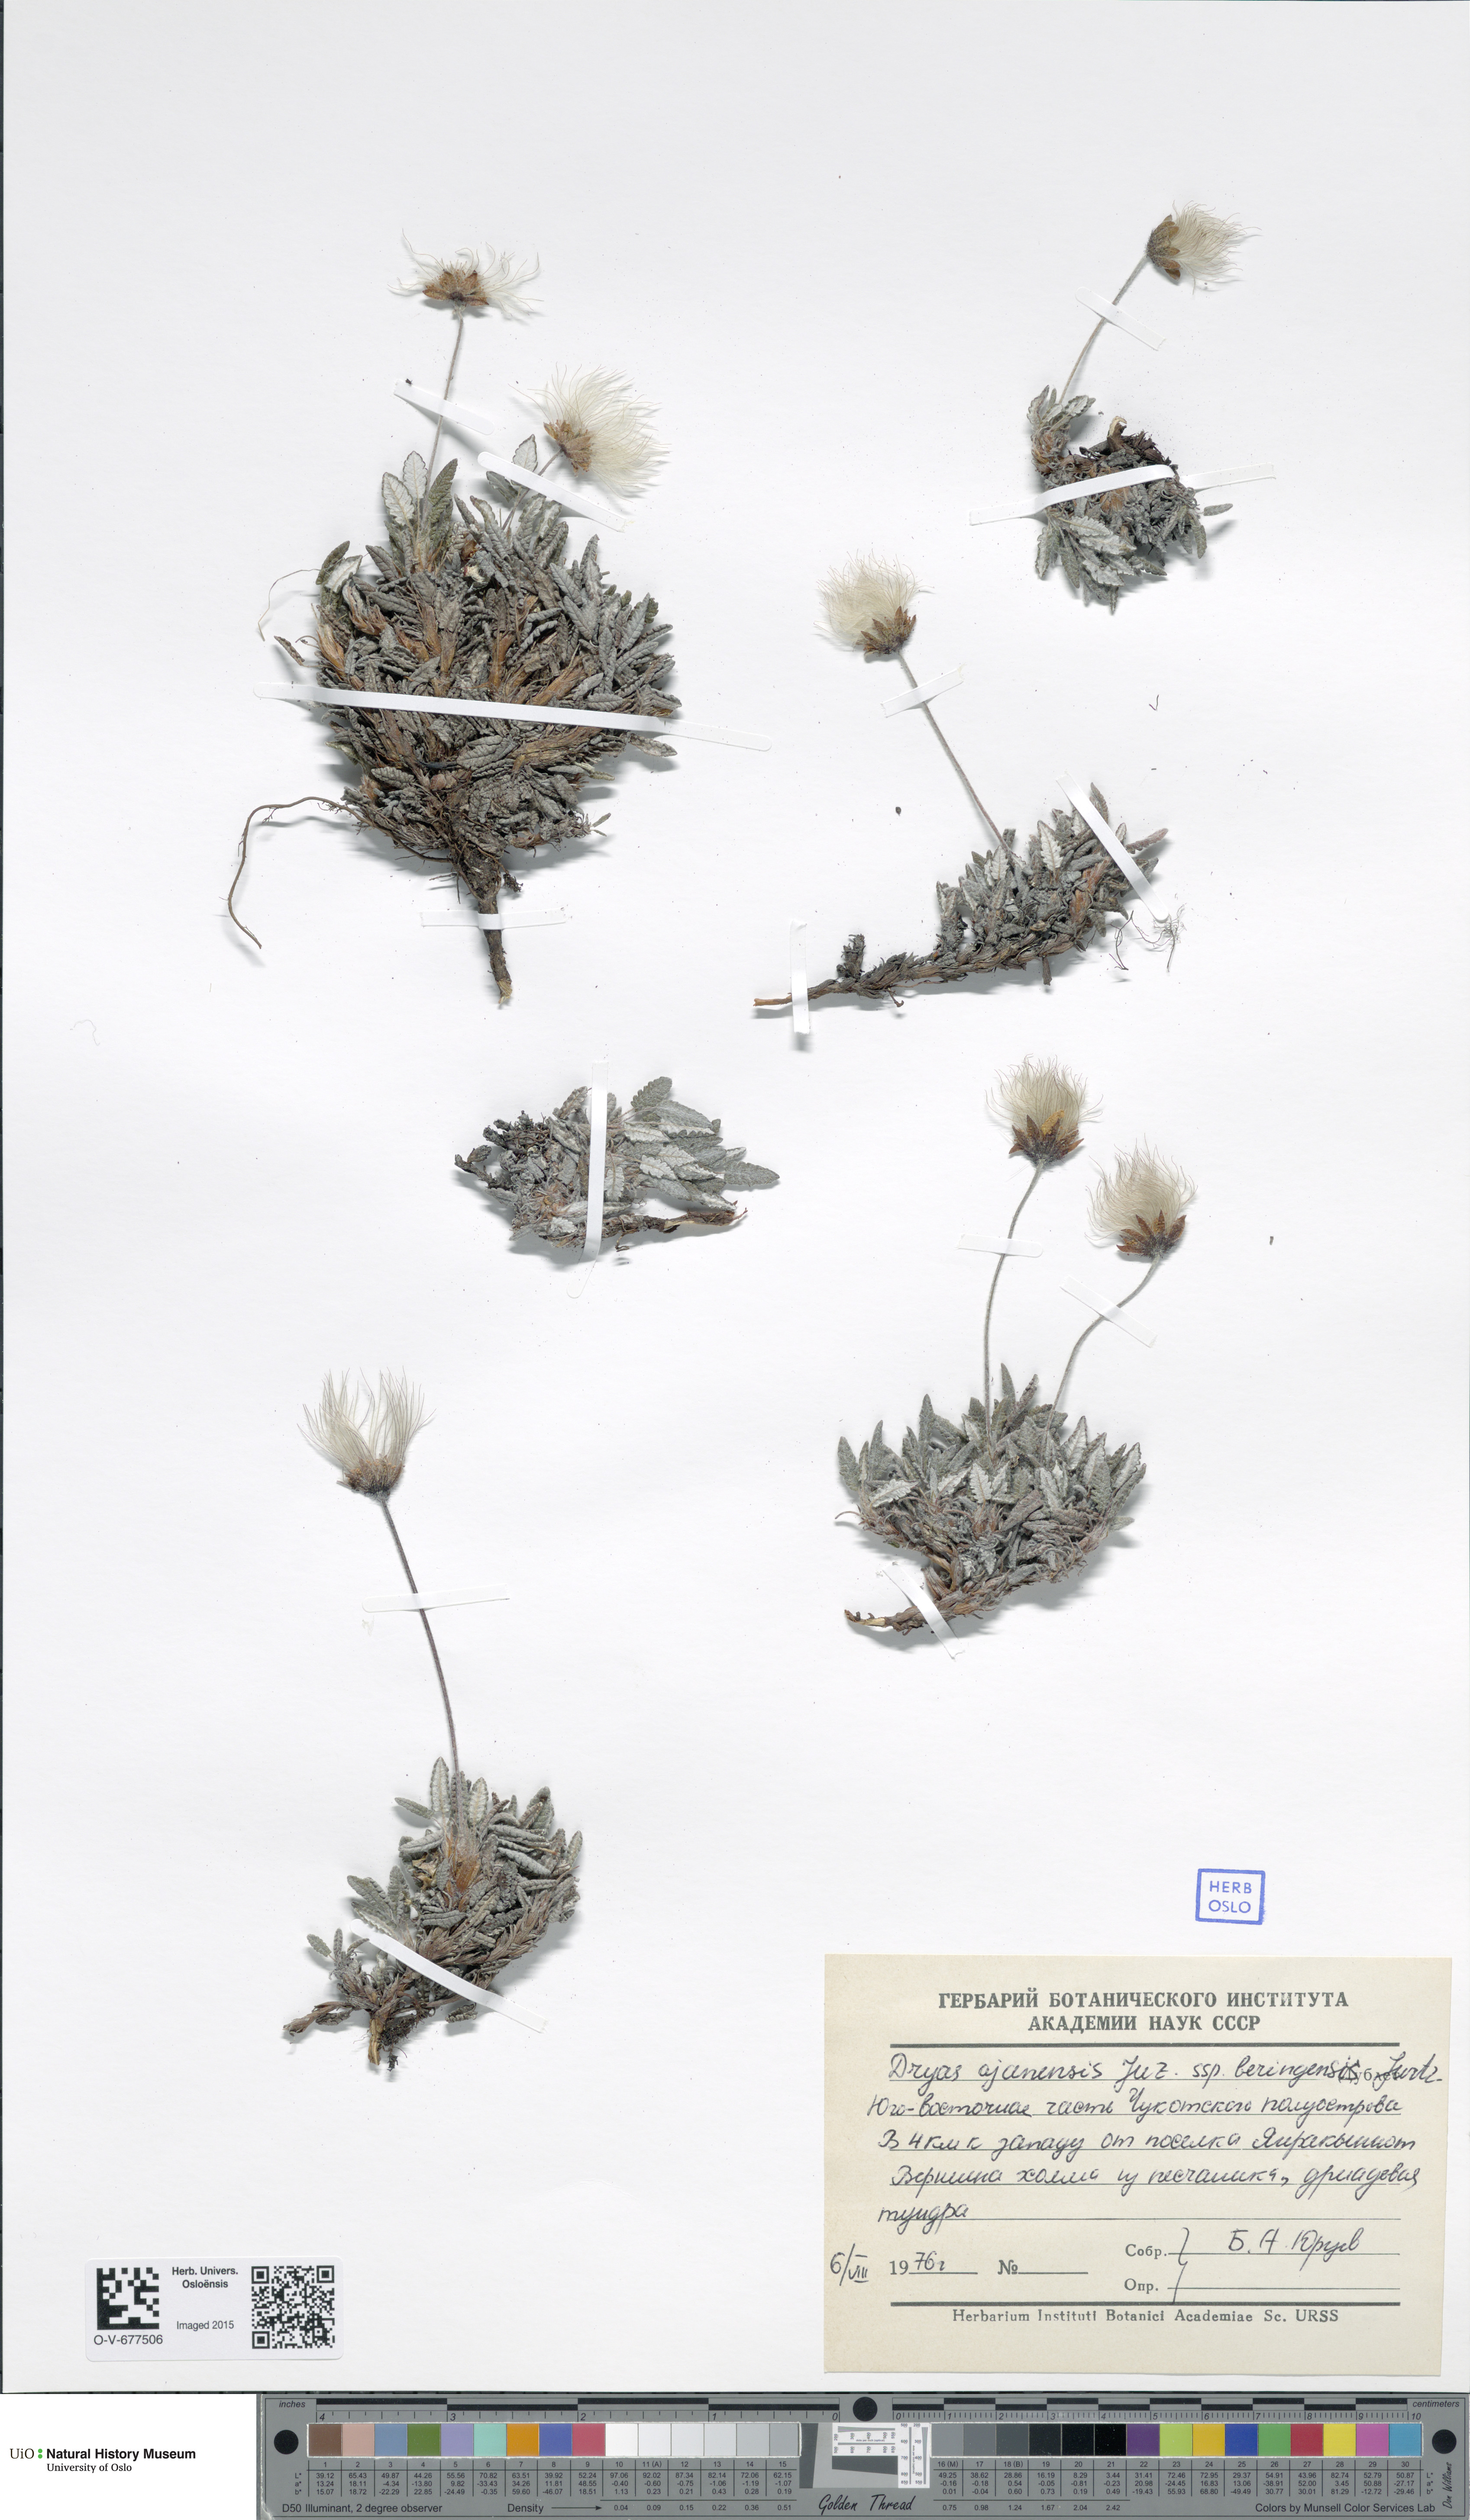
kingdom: Plantae
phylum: Tracheophyta
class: Magnoliopsida
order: Rosales
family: Rosaceae
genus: Dryas
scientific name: Dryas octopetala
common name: Eight-petal mountain-avens
